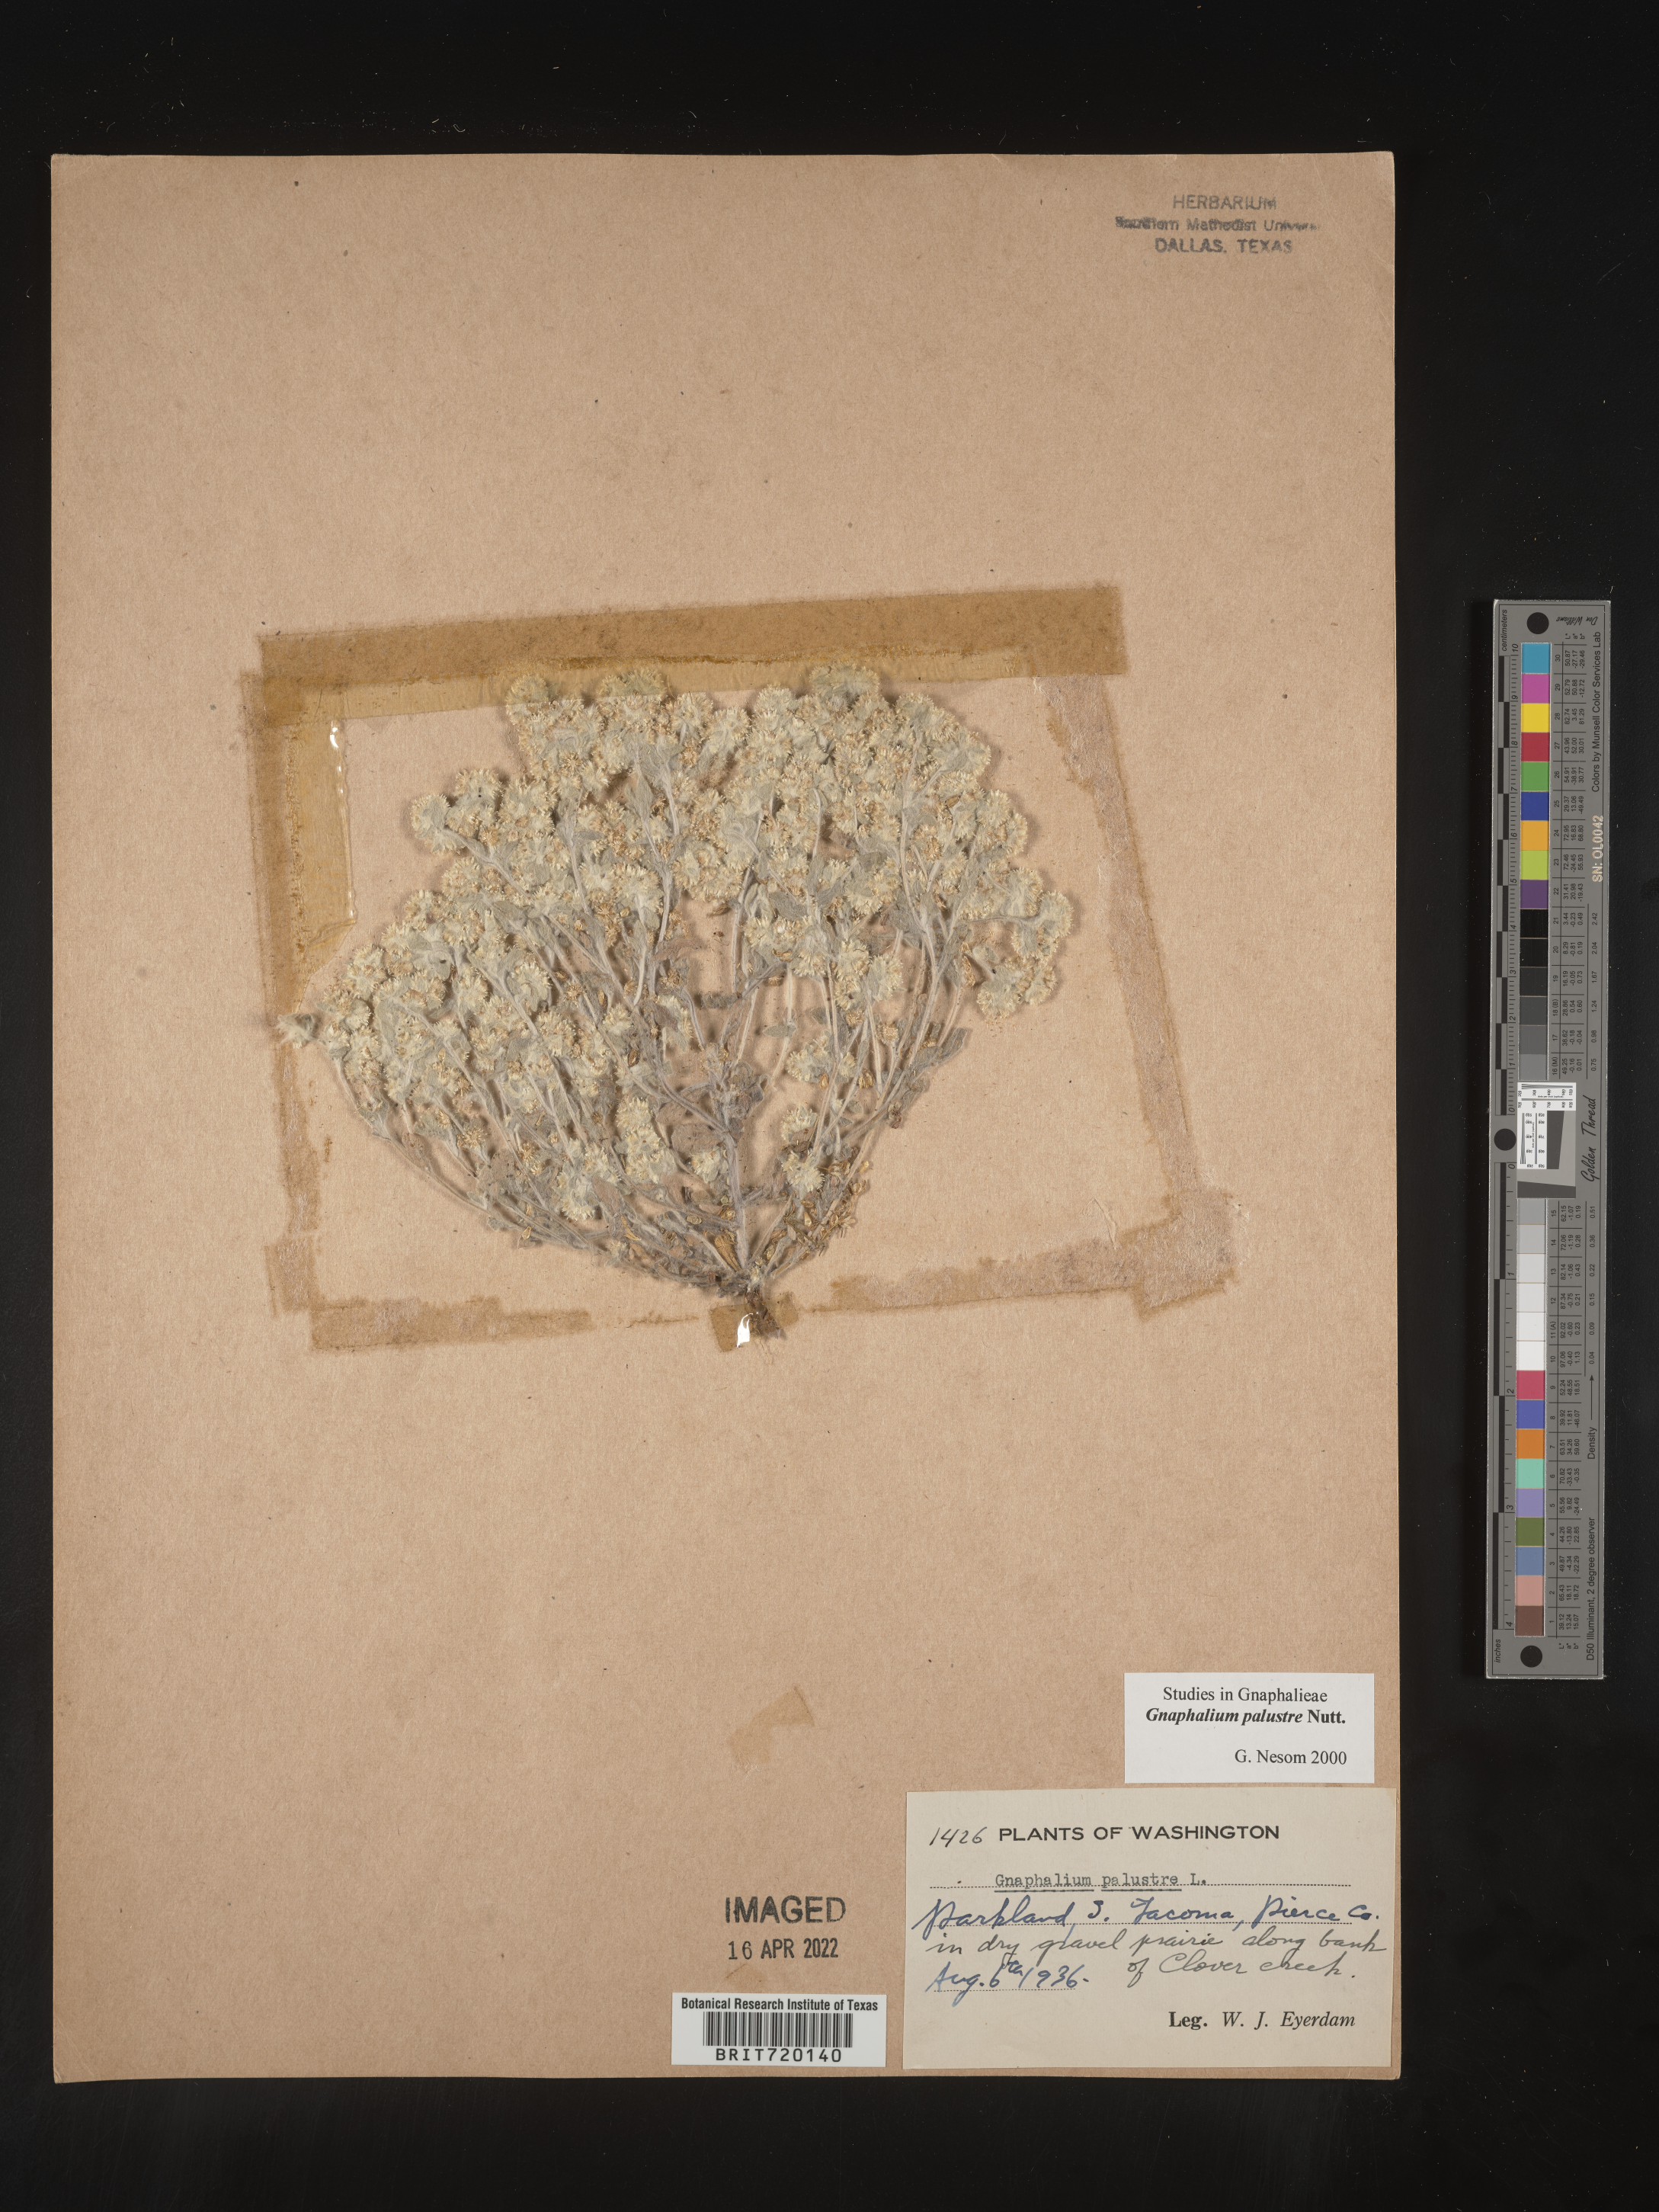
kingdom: Plantae
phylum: Tracheophyta
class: Magnoliopsida
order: Asterales
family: Asteraceae
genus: Gnaphalium
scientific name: Gnaphalium palustre
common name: Western marsh cudweed
